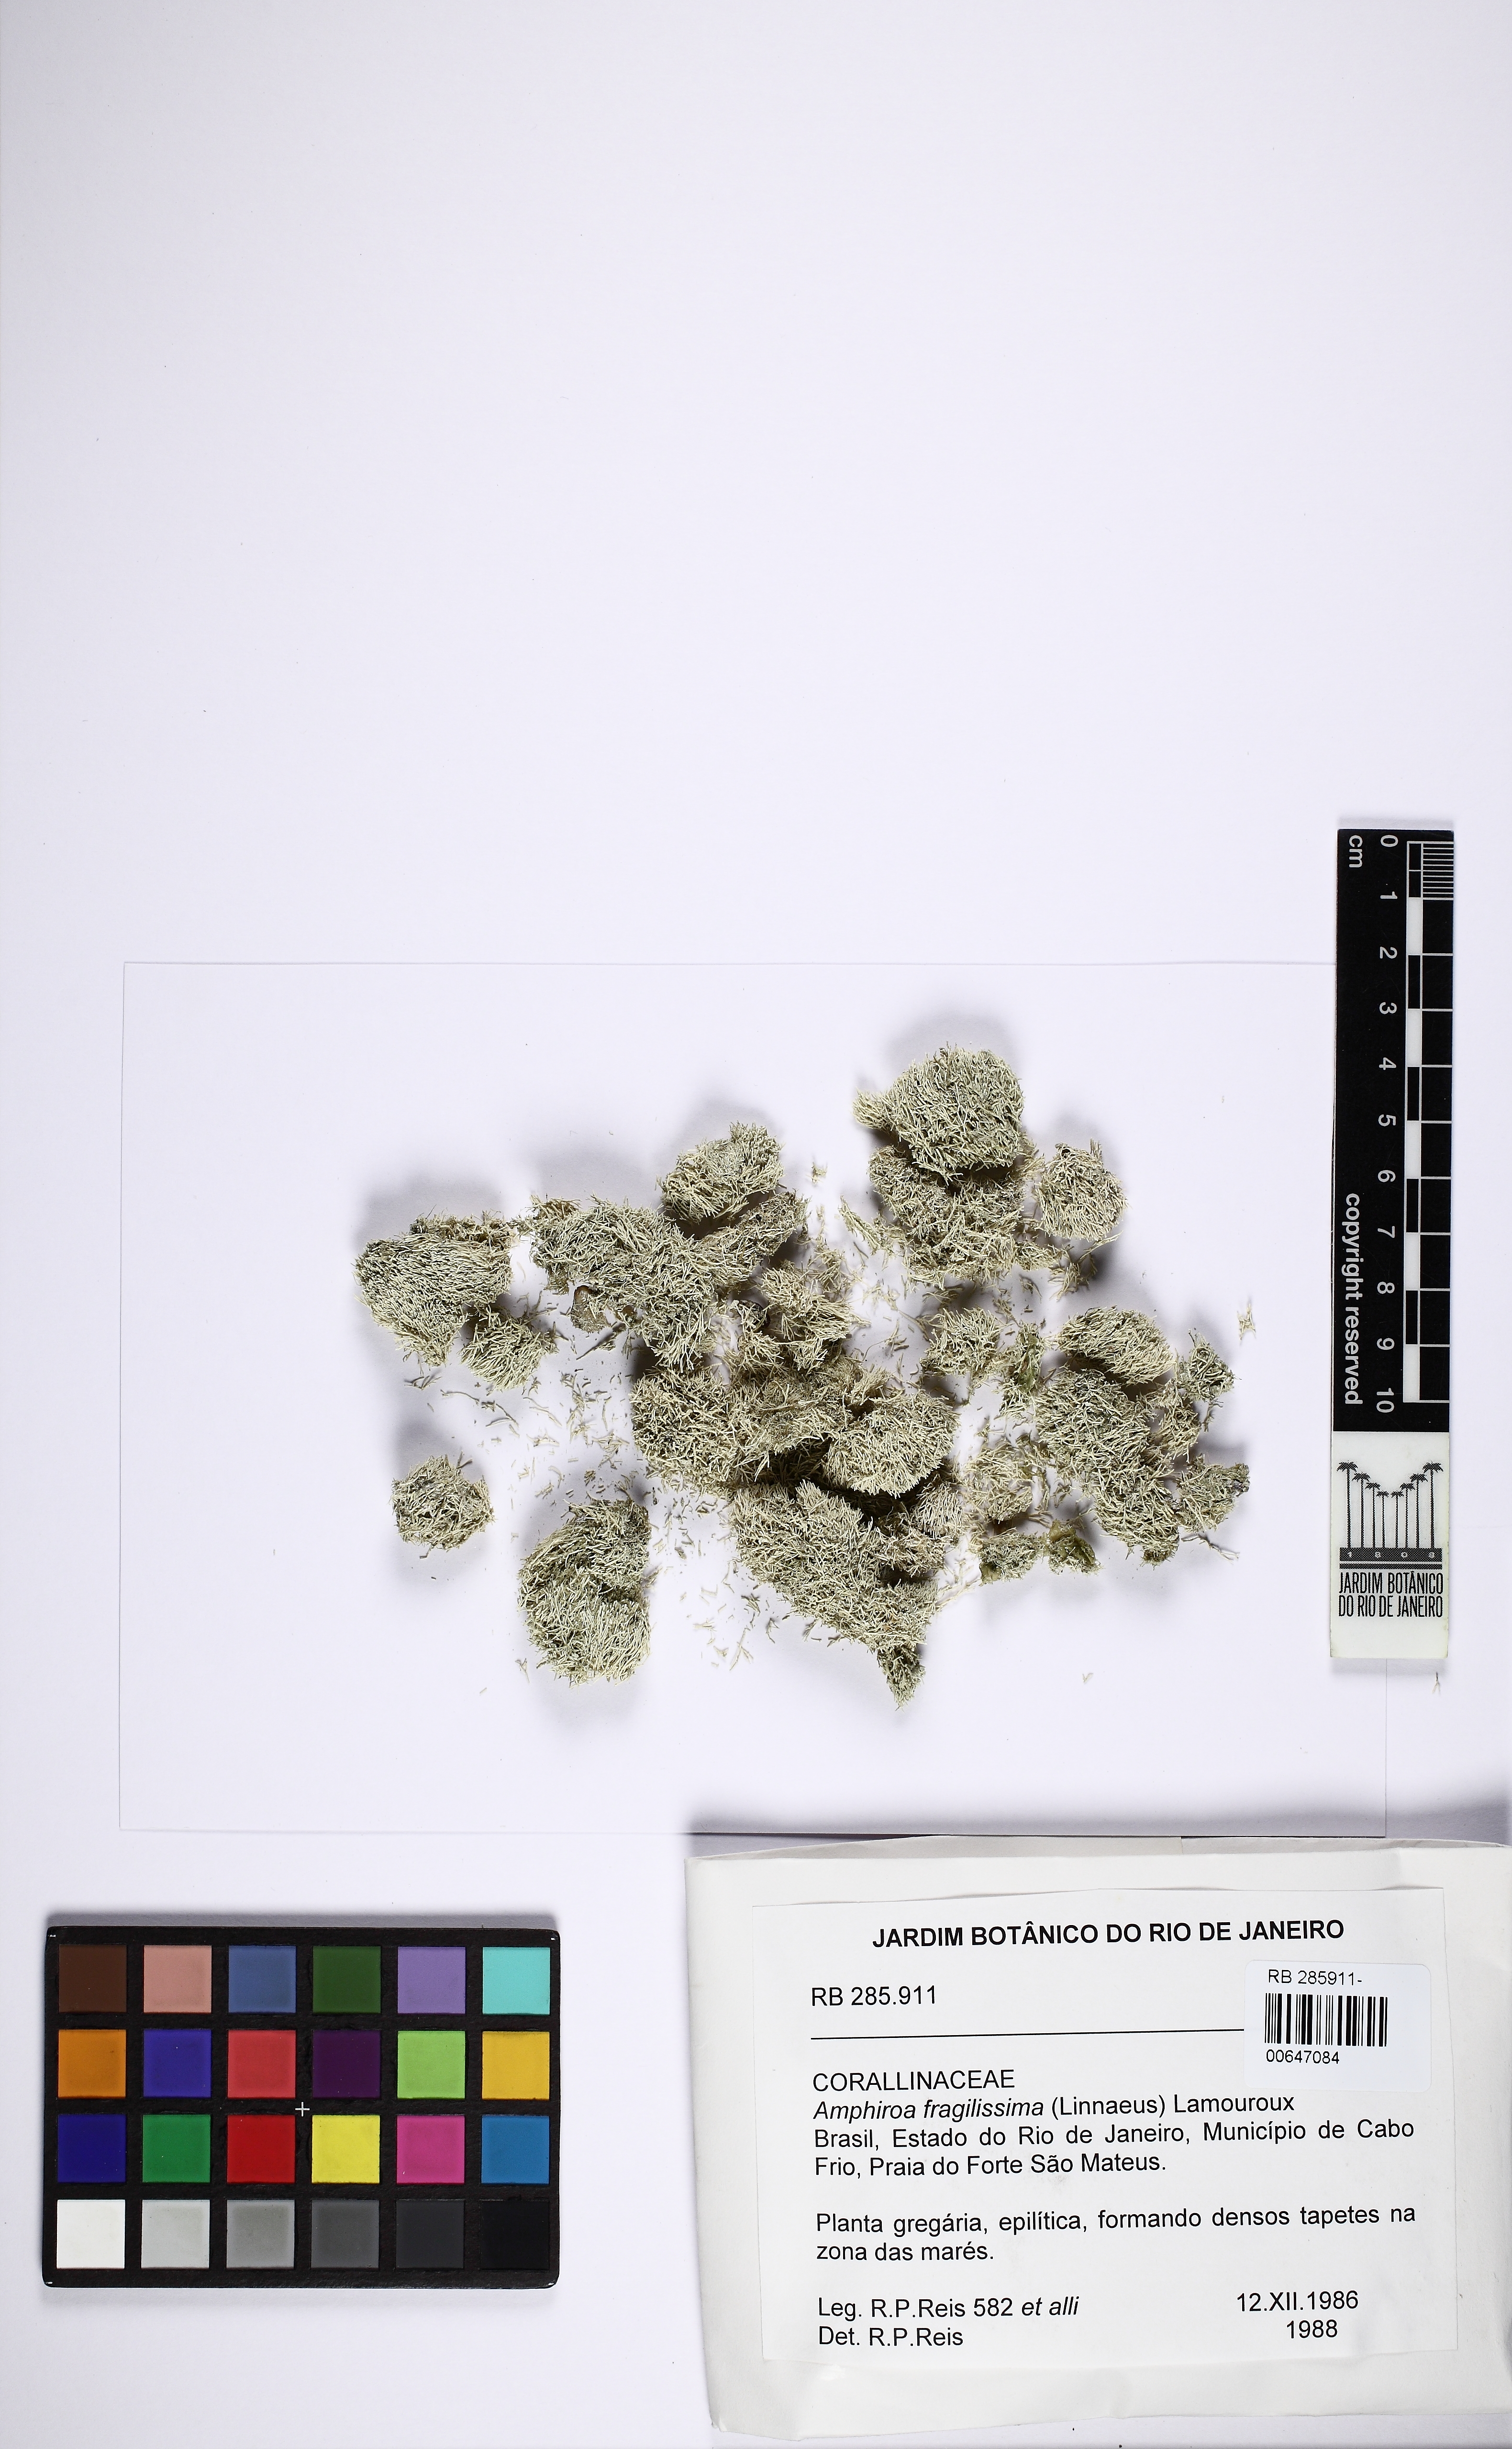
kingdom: Plantae
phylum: Rhodophyta
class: Florideophyceae
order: Corallinales
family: Lithophyllaceae
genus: Amphiroa
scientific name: Amphiroa fragilissima
